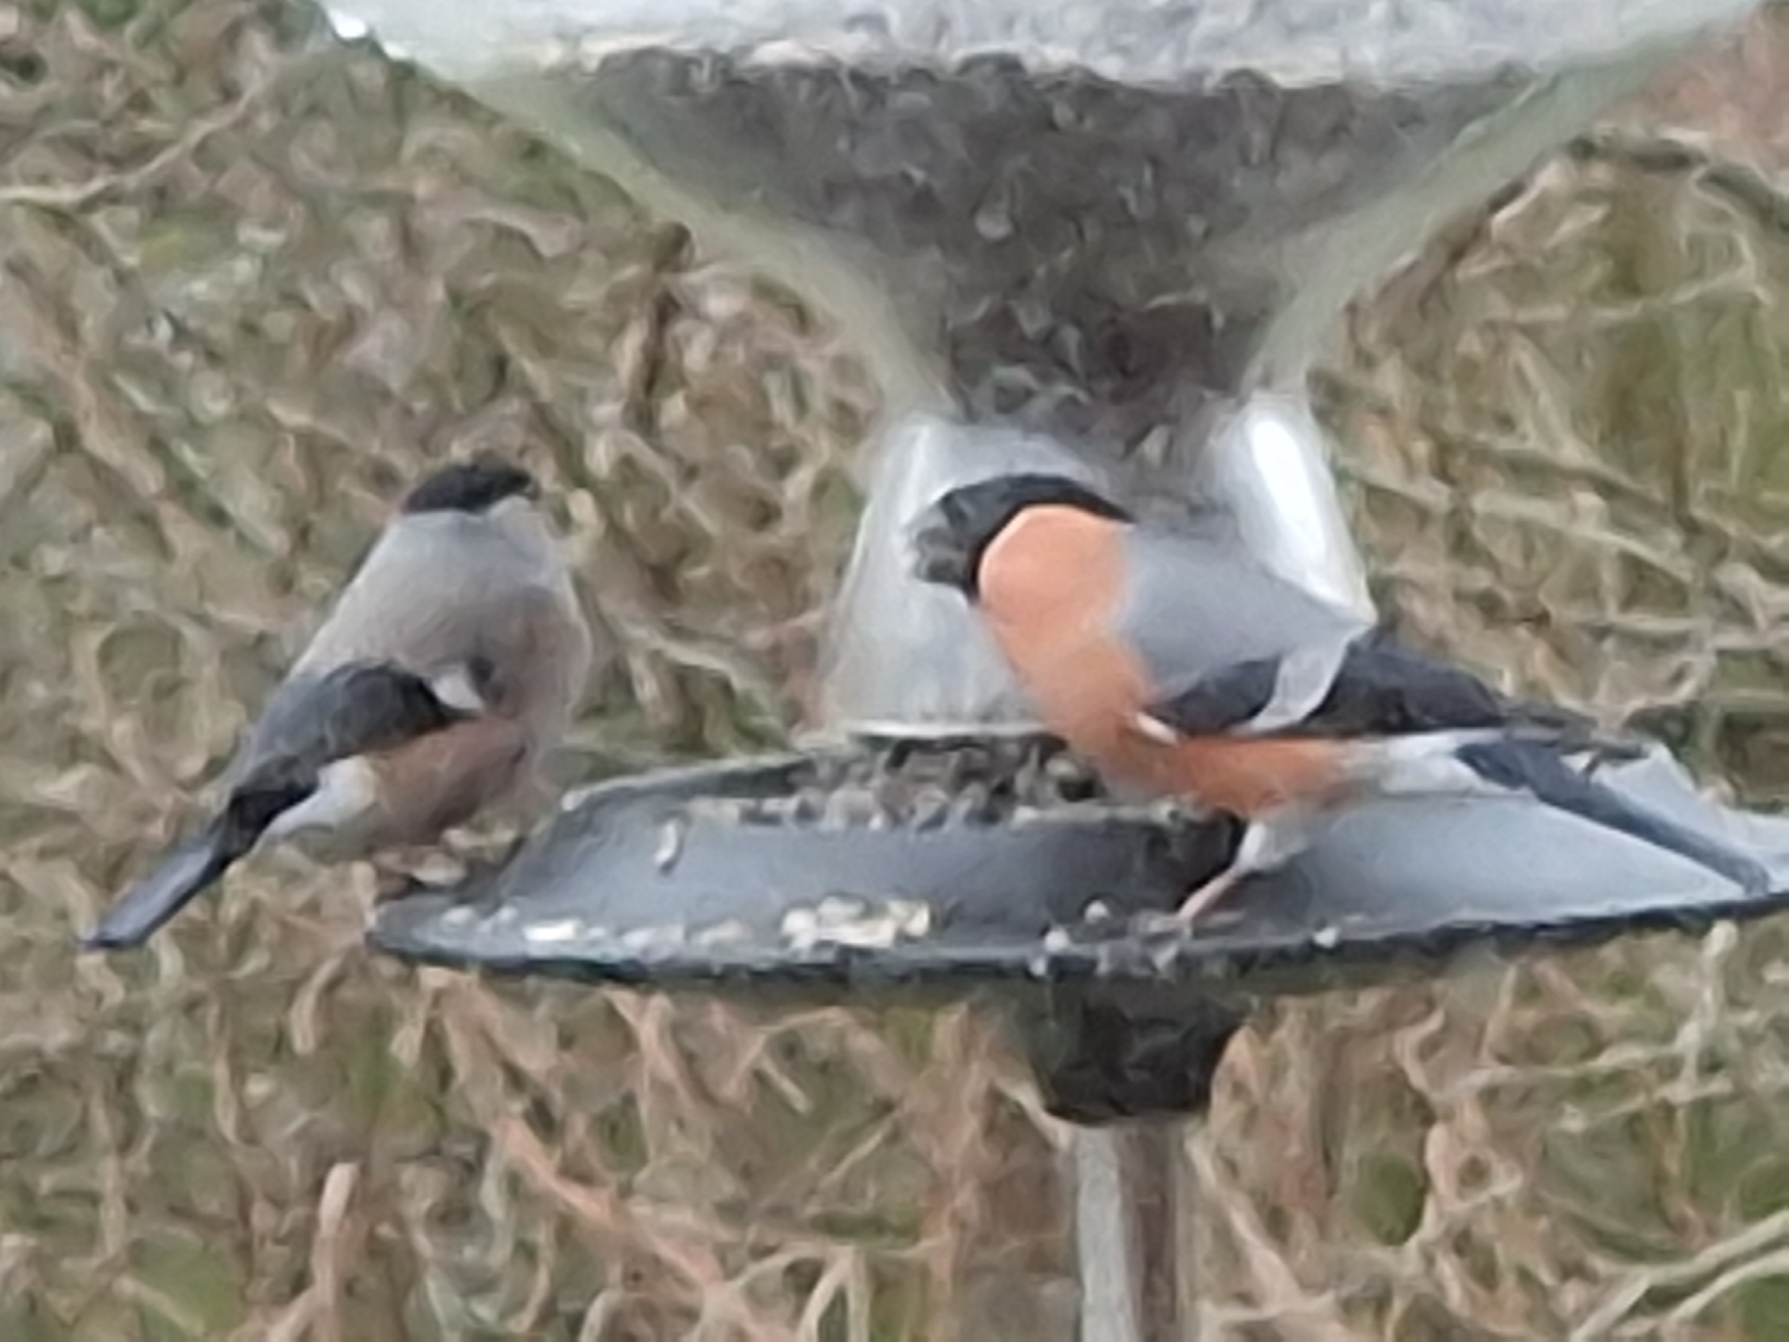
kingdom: Animalia
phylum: Chordata
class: Aves
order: Passeriformes
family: Fringillidae
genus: Pyrrhula
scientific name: Pyrrhula pyrrhula
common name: Dompap
